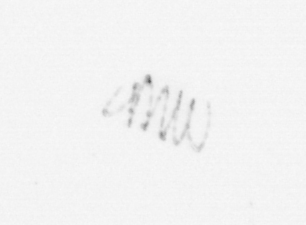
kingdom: Chromista
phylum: Ochrophyta
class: Bacillariophyceae
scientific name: Bacillariophyceae
